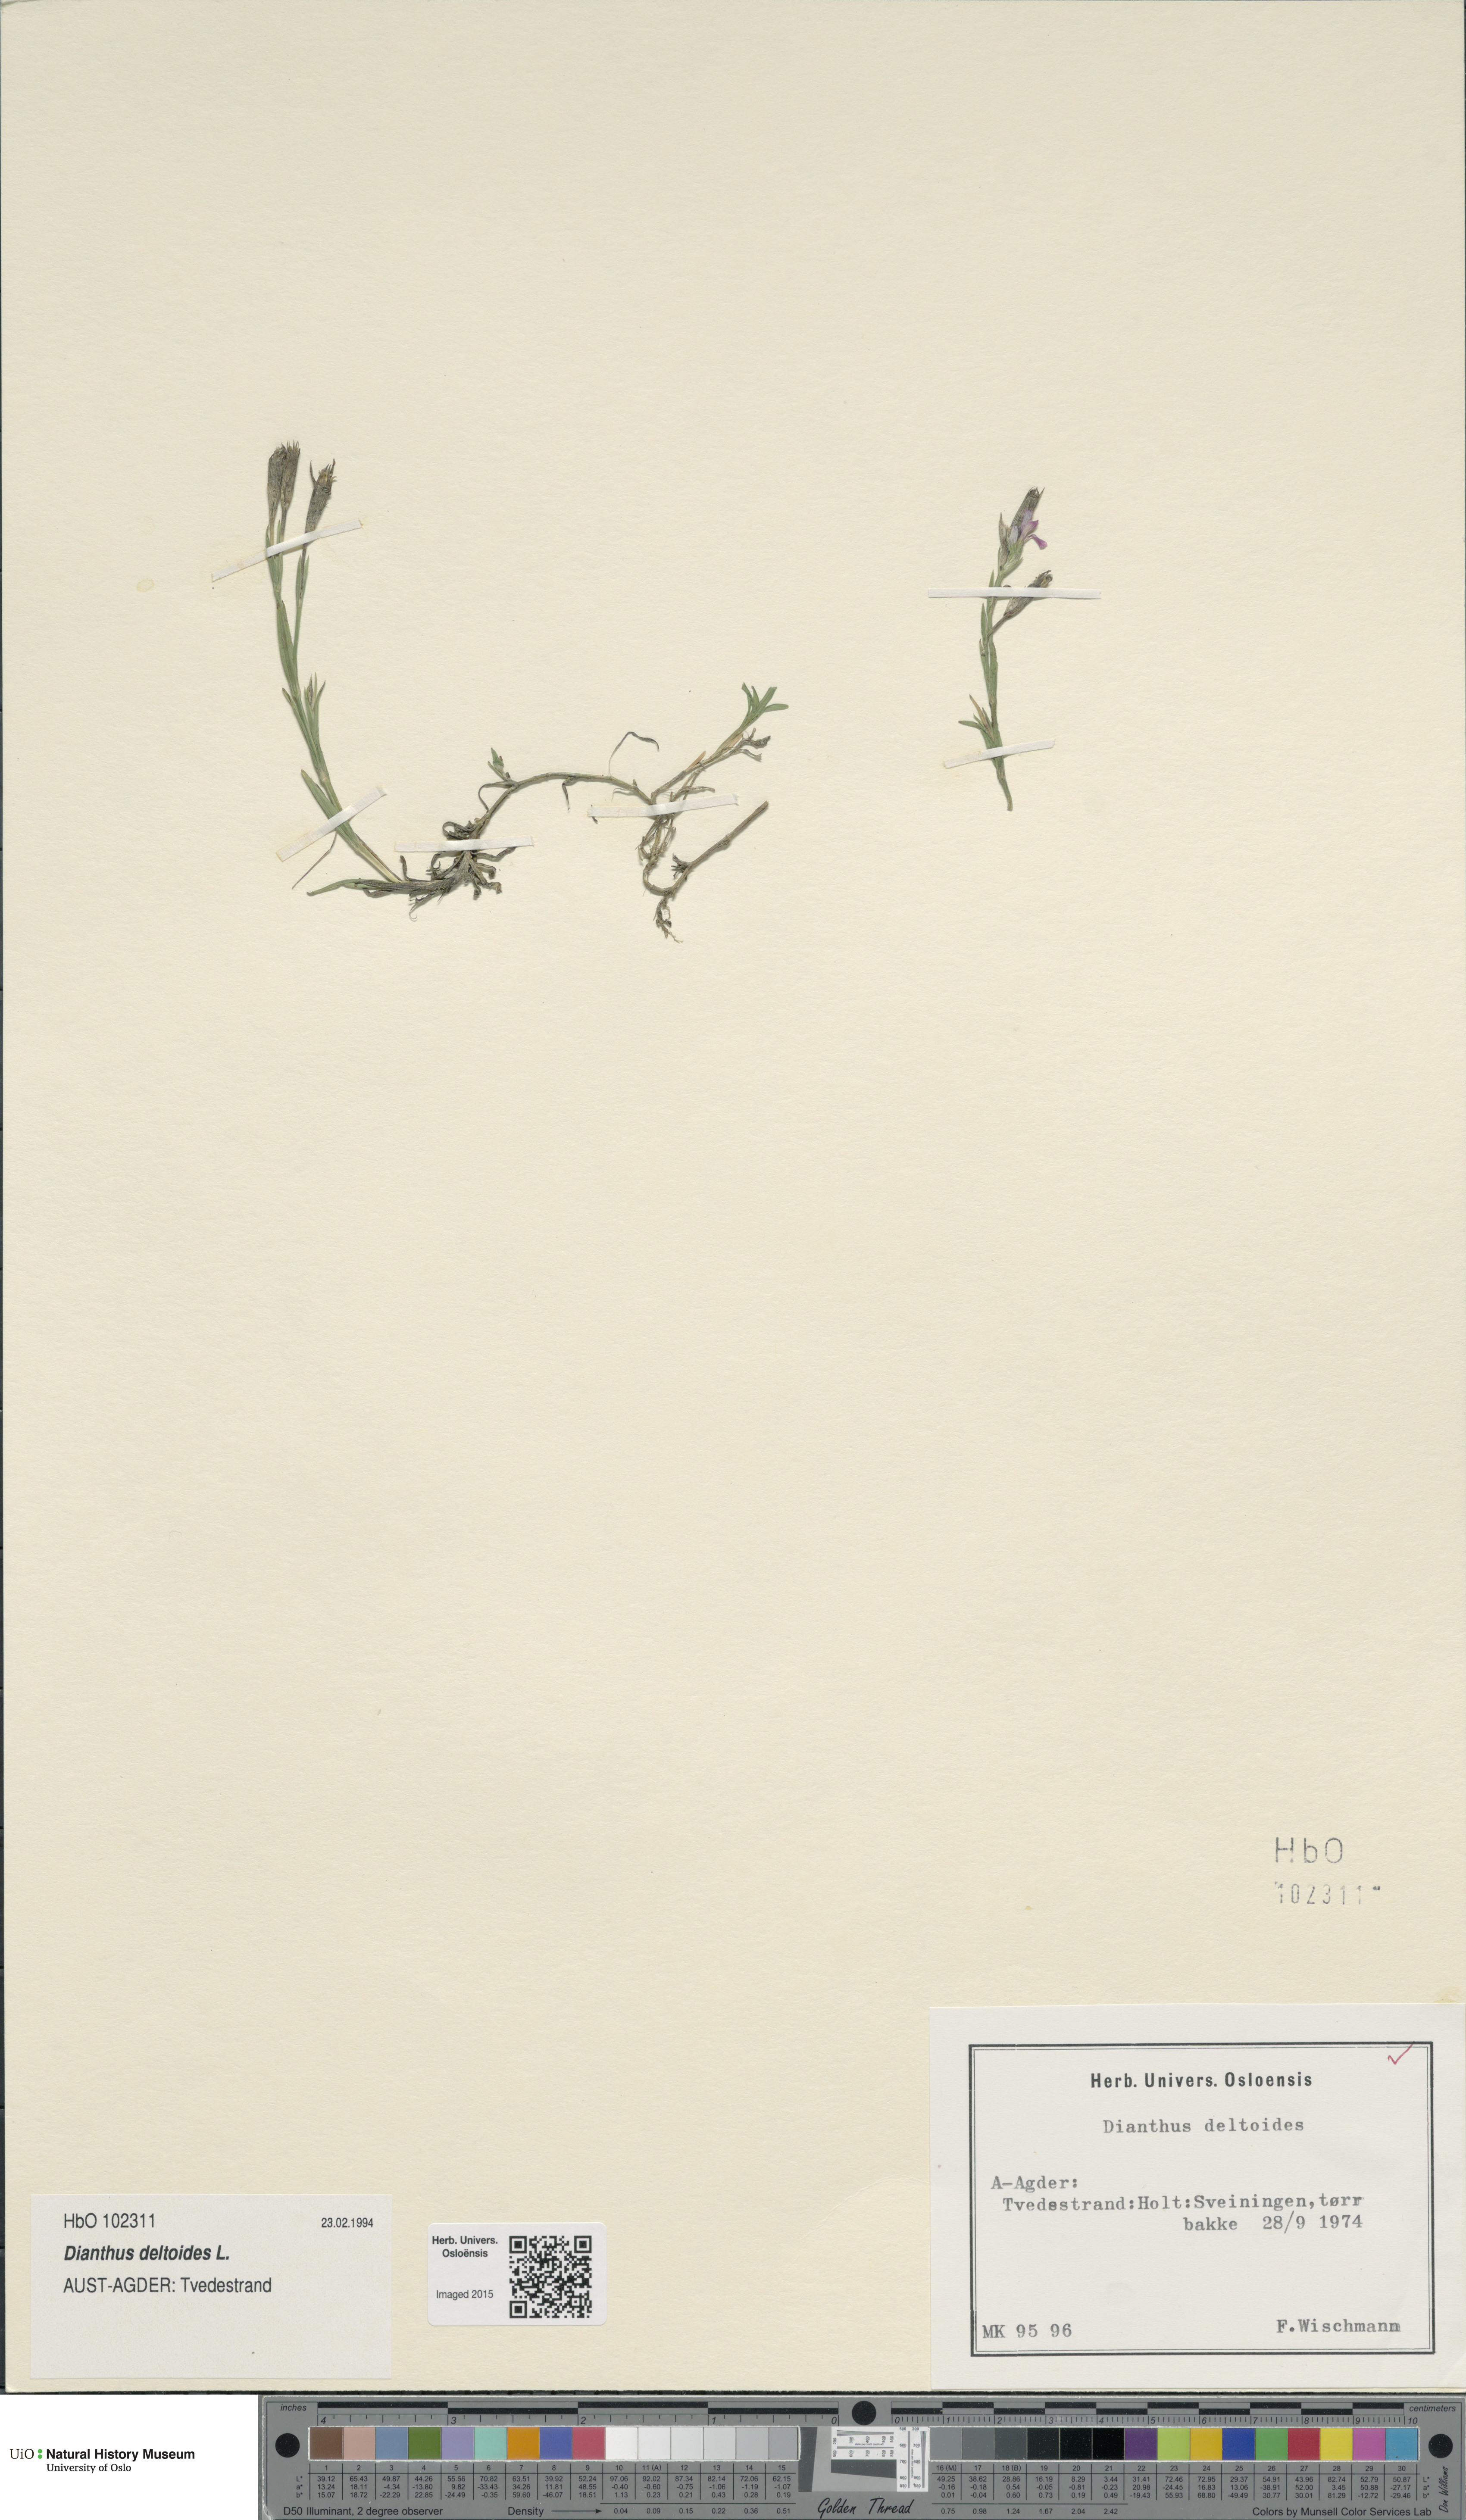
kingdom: Plantae
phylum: Tracheophyta
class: Magnoliopsida
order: Caryophyllales
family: Caryophyllaceae
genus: Dianthus
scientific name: Dianthus deltoides
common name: Maiden pink
